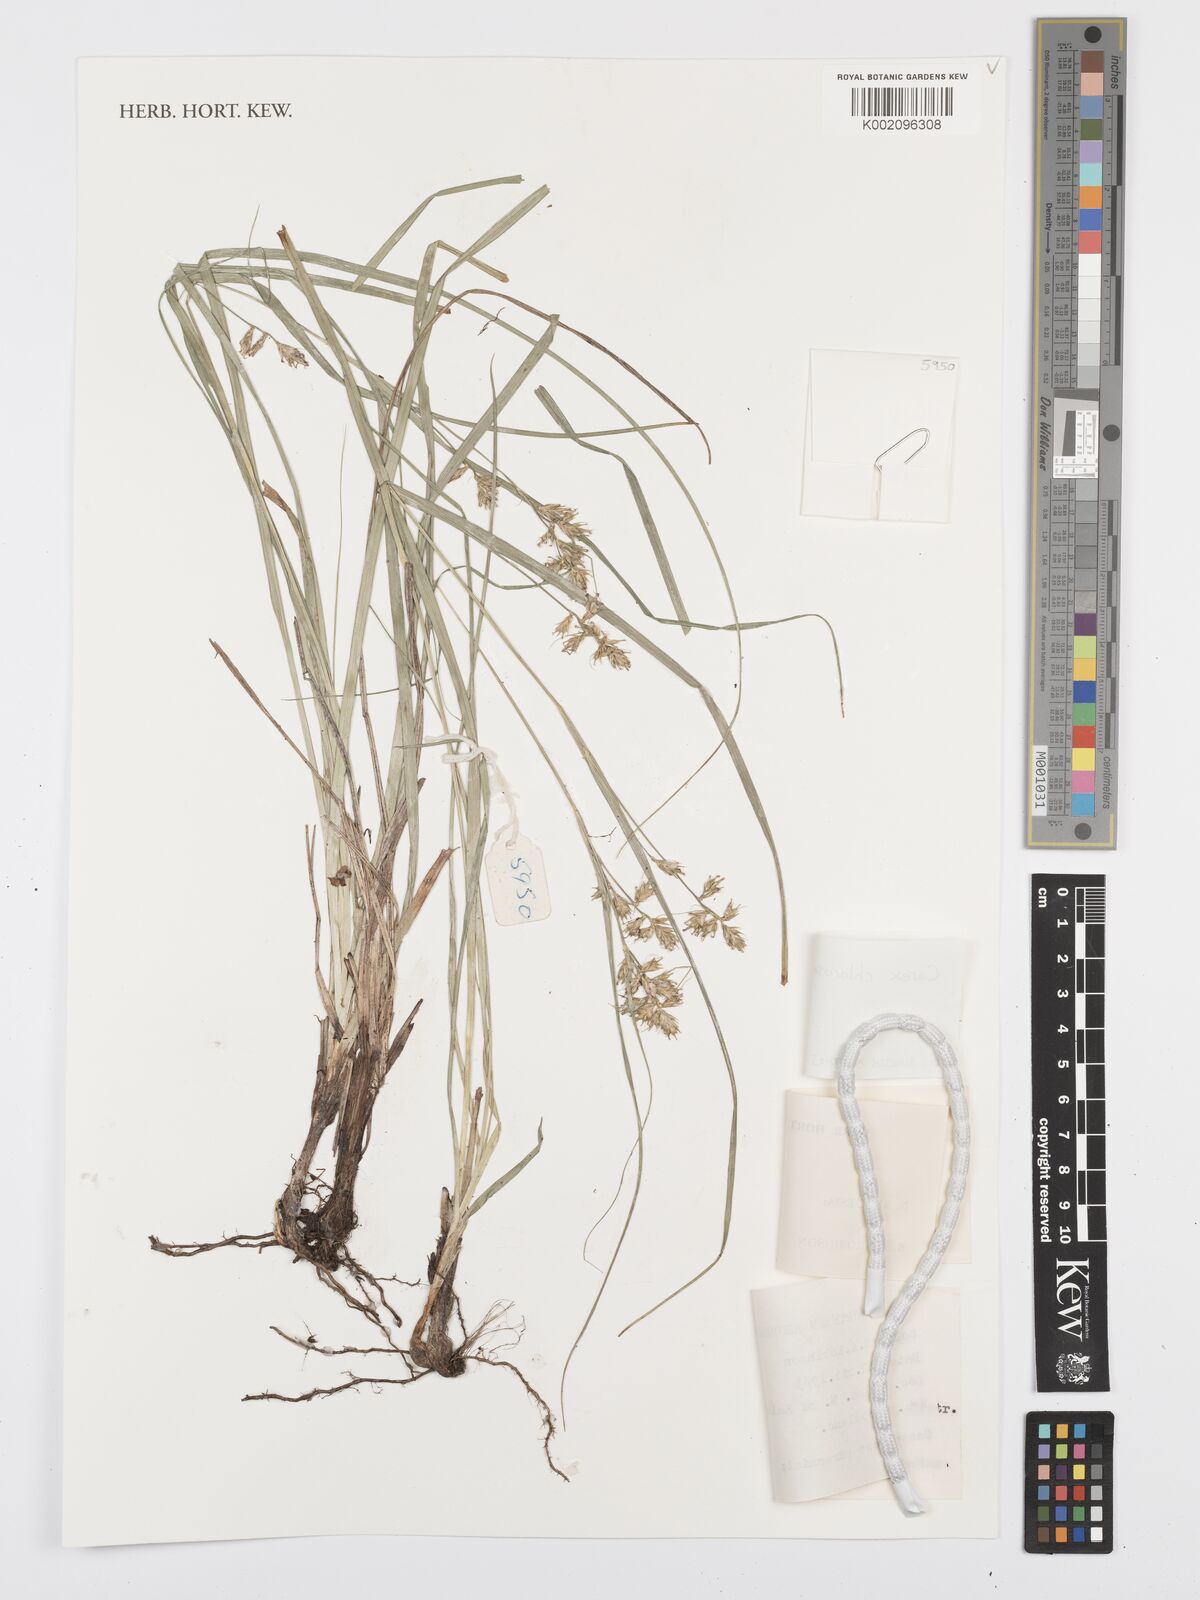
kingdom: Plantae
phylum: Tracheophyta
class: Liliopsida
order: Poales
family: Cyperaceae
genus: Carex
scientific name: Carex chlorosaccus
